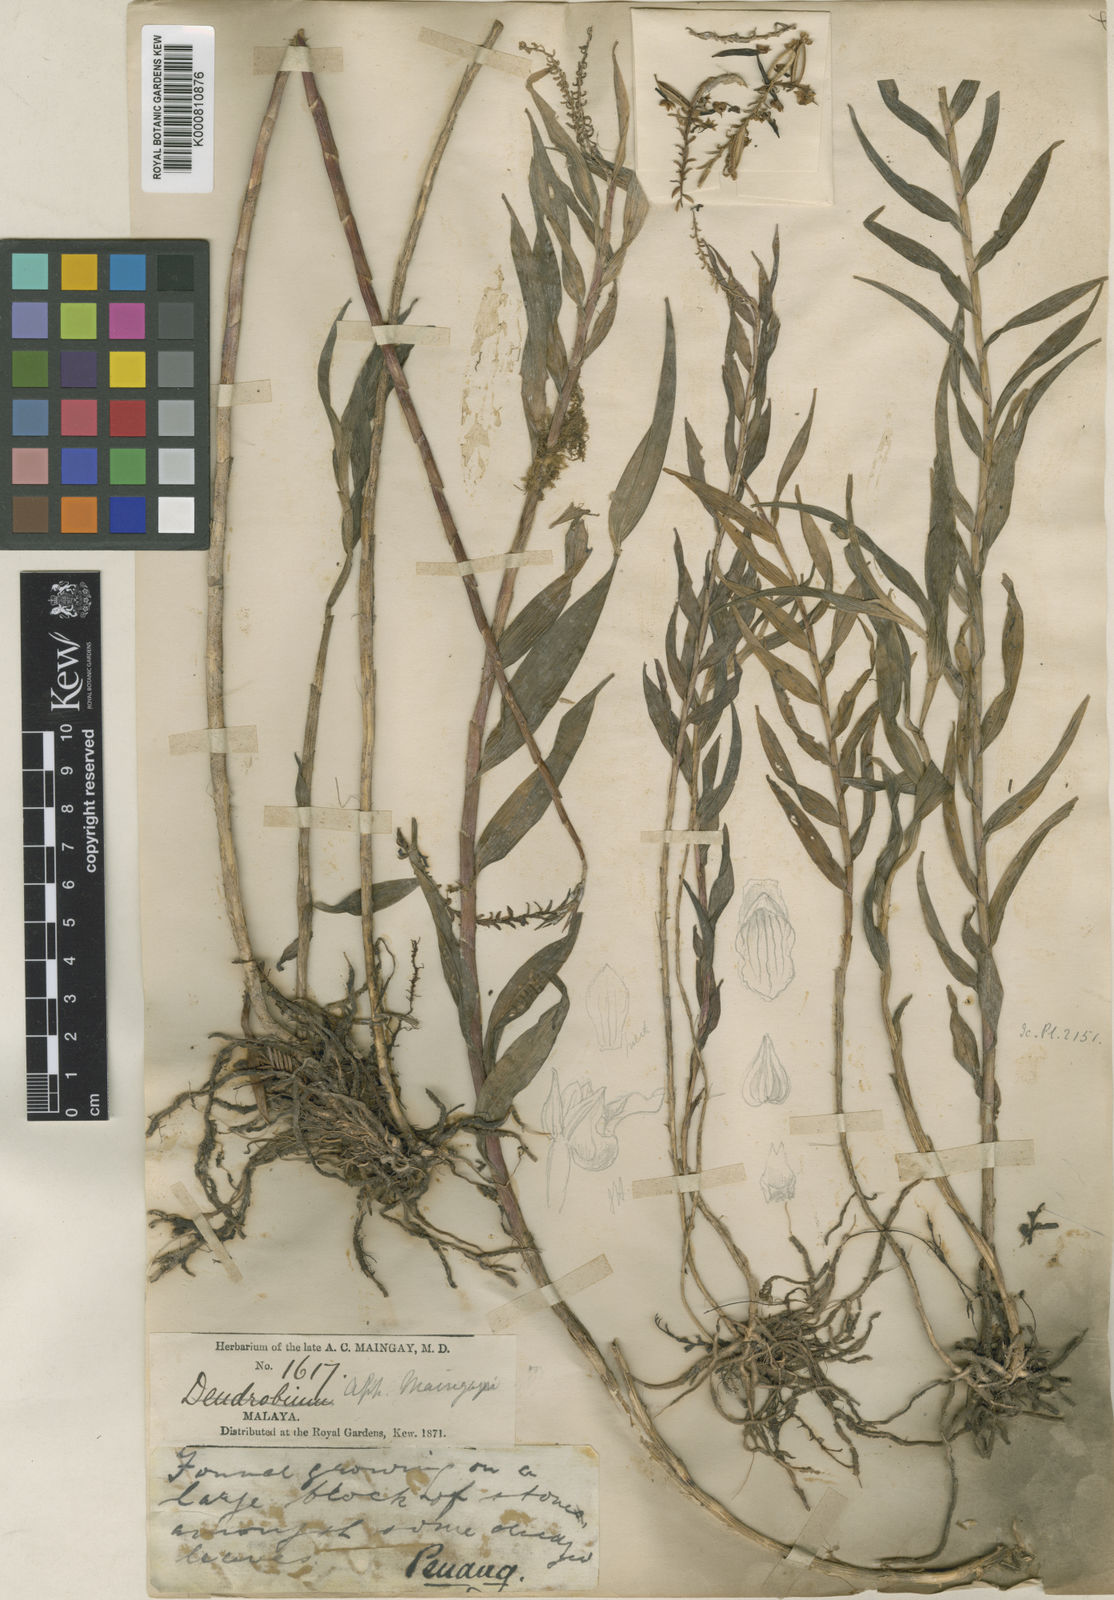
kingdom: Plantae
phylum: Tracheophyta
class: Liliopsida
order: Asparagales
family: Orchidaceae
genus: Appendicula
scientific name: Appendicula pendula
